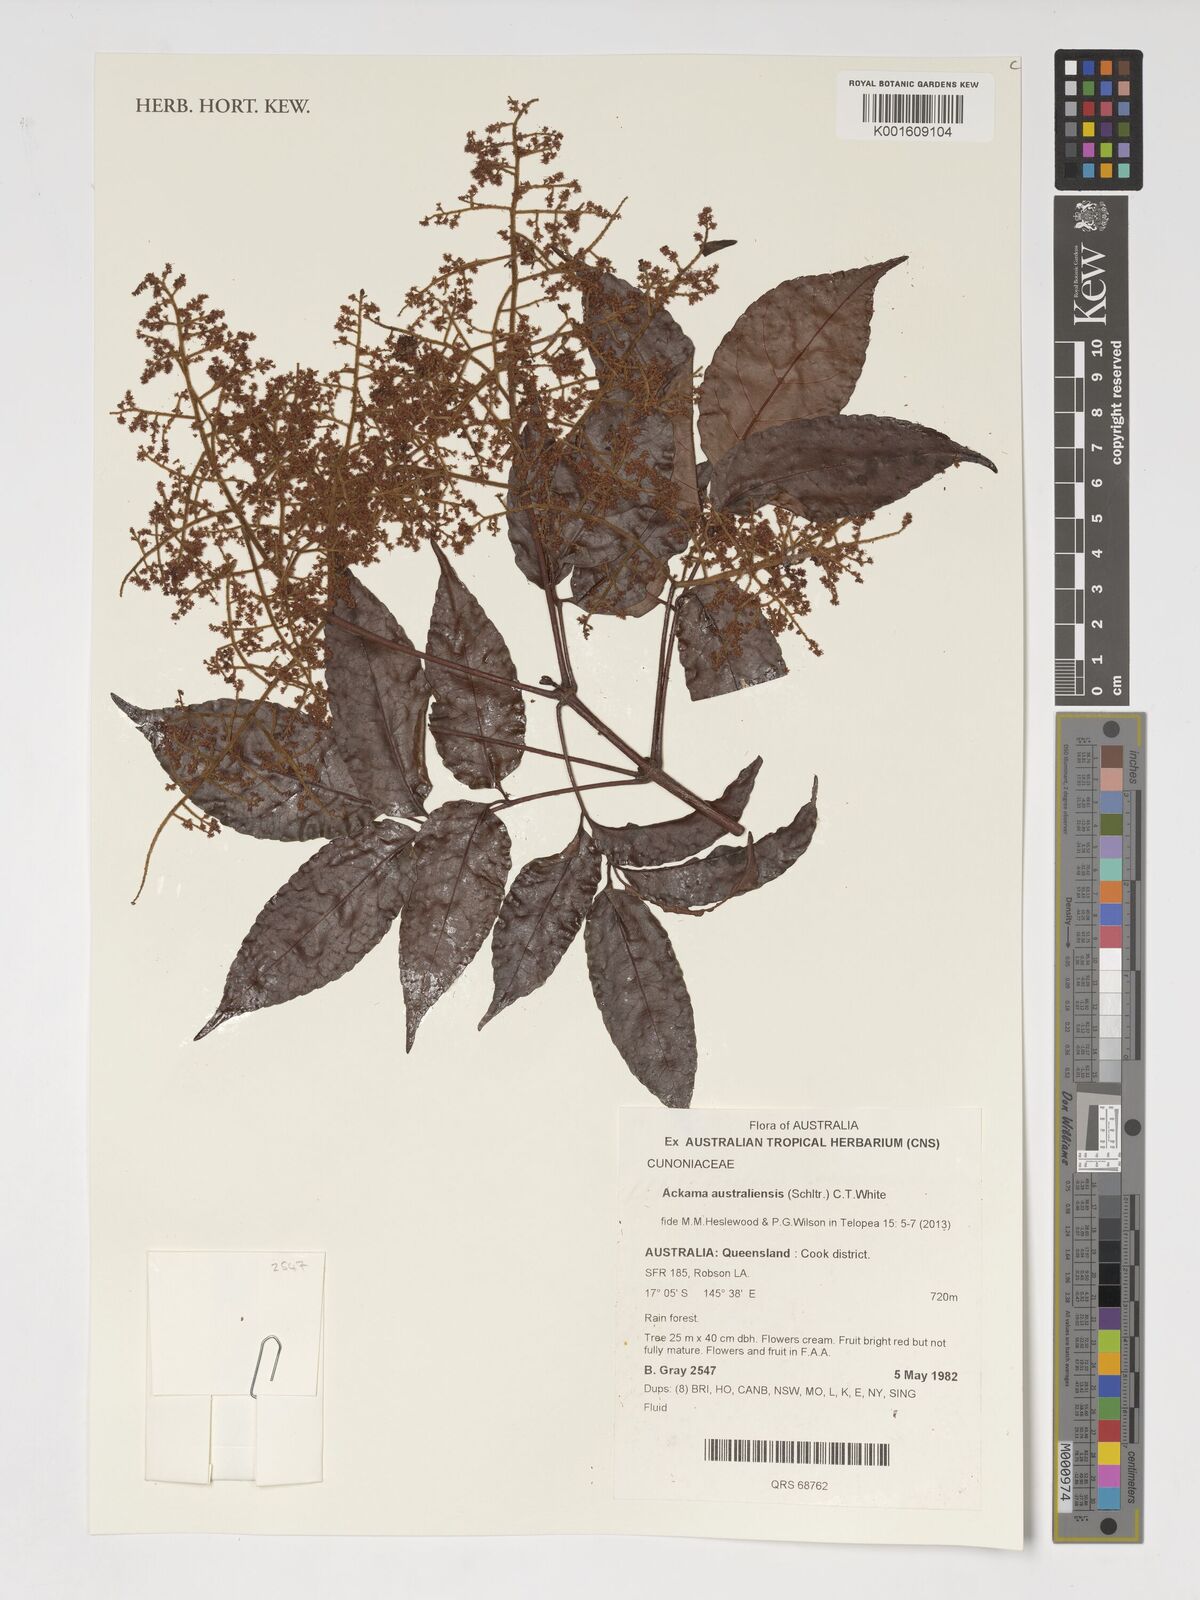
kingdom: Plantae
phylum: Tracheophyta
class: Magnoliopsida
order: Oxalidales
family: Cunoniaceae
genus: Ackama
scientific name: Ackama australiensis
